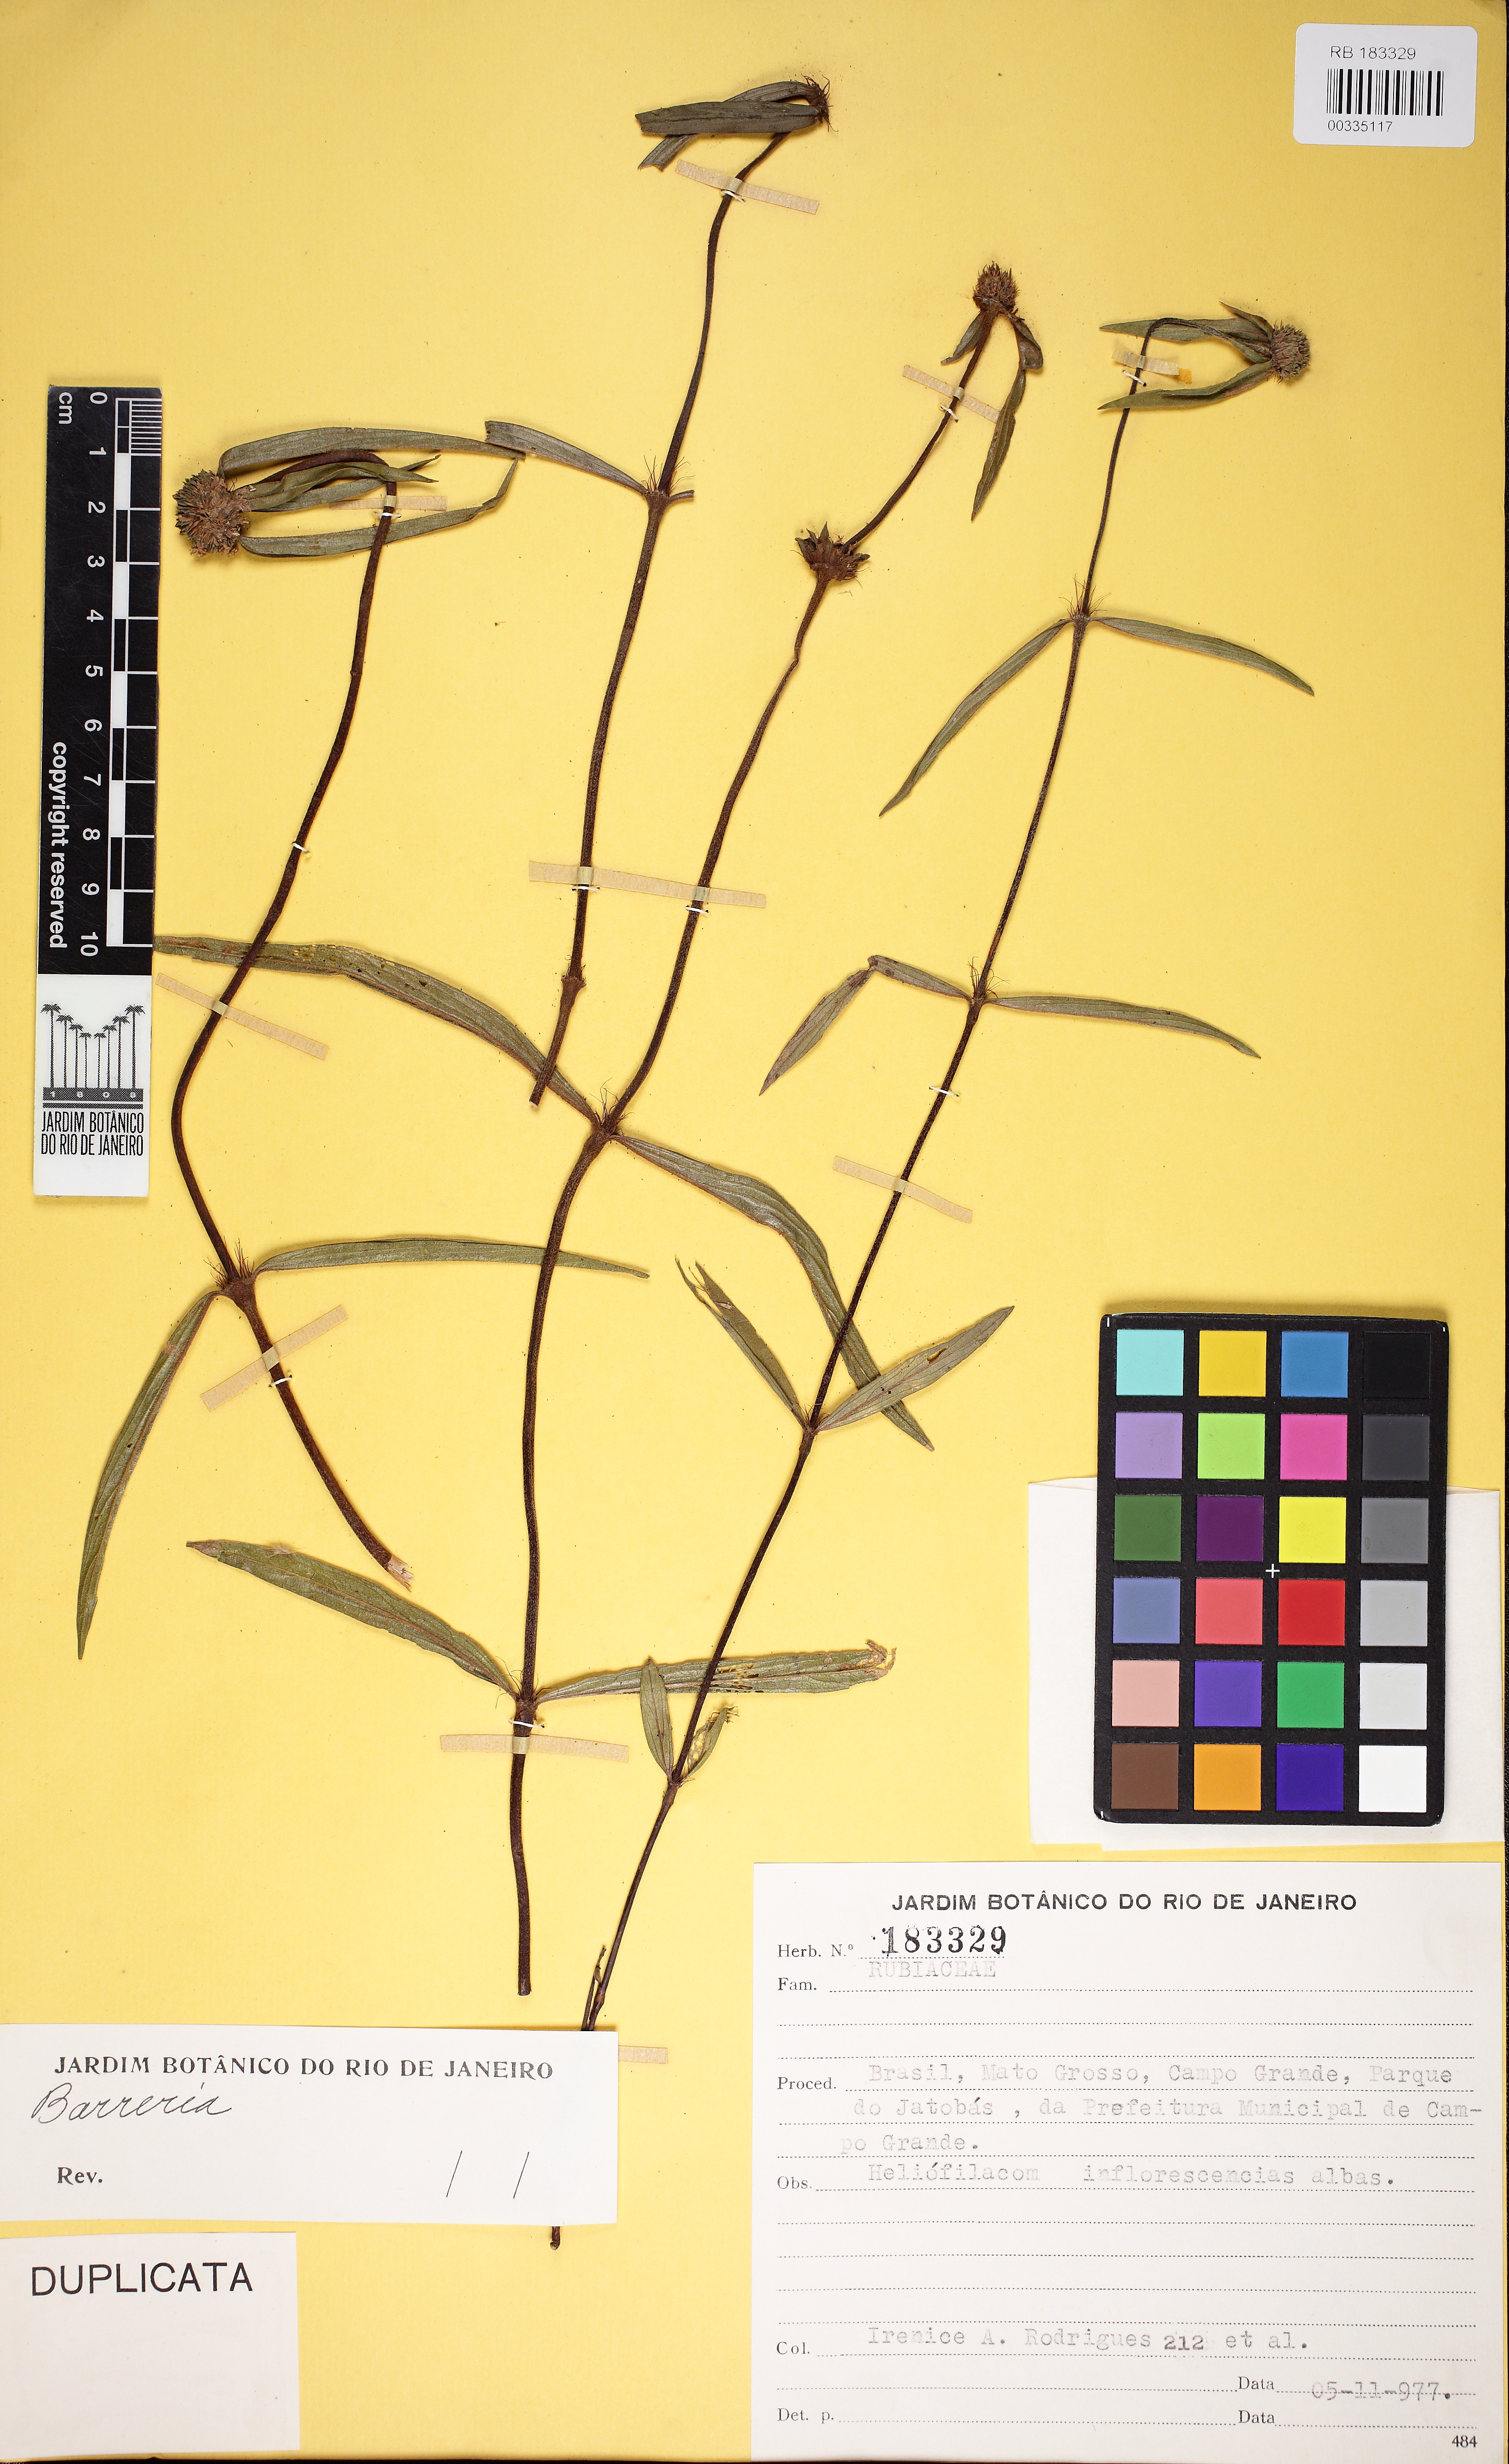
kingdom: Plantae
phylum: Tracheophyta
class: Magnoliopsida
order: Gentianales
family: Rubiaceae
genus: Spermacoce
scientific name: Spermacoce
